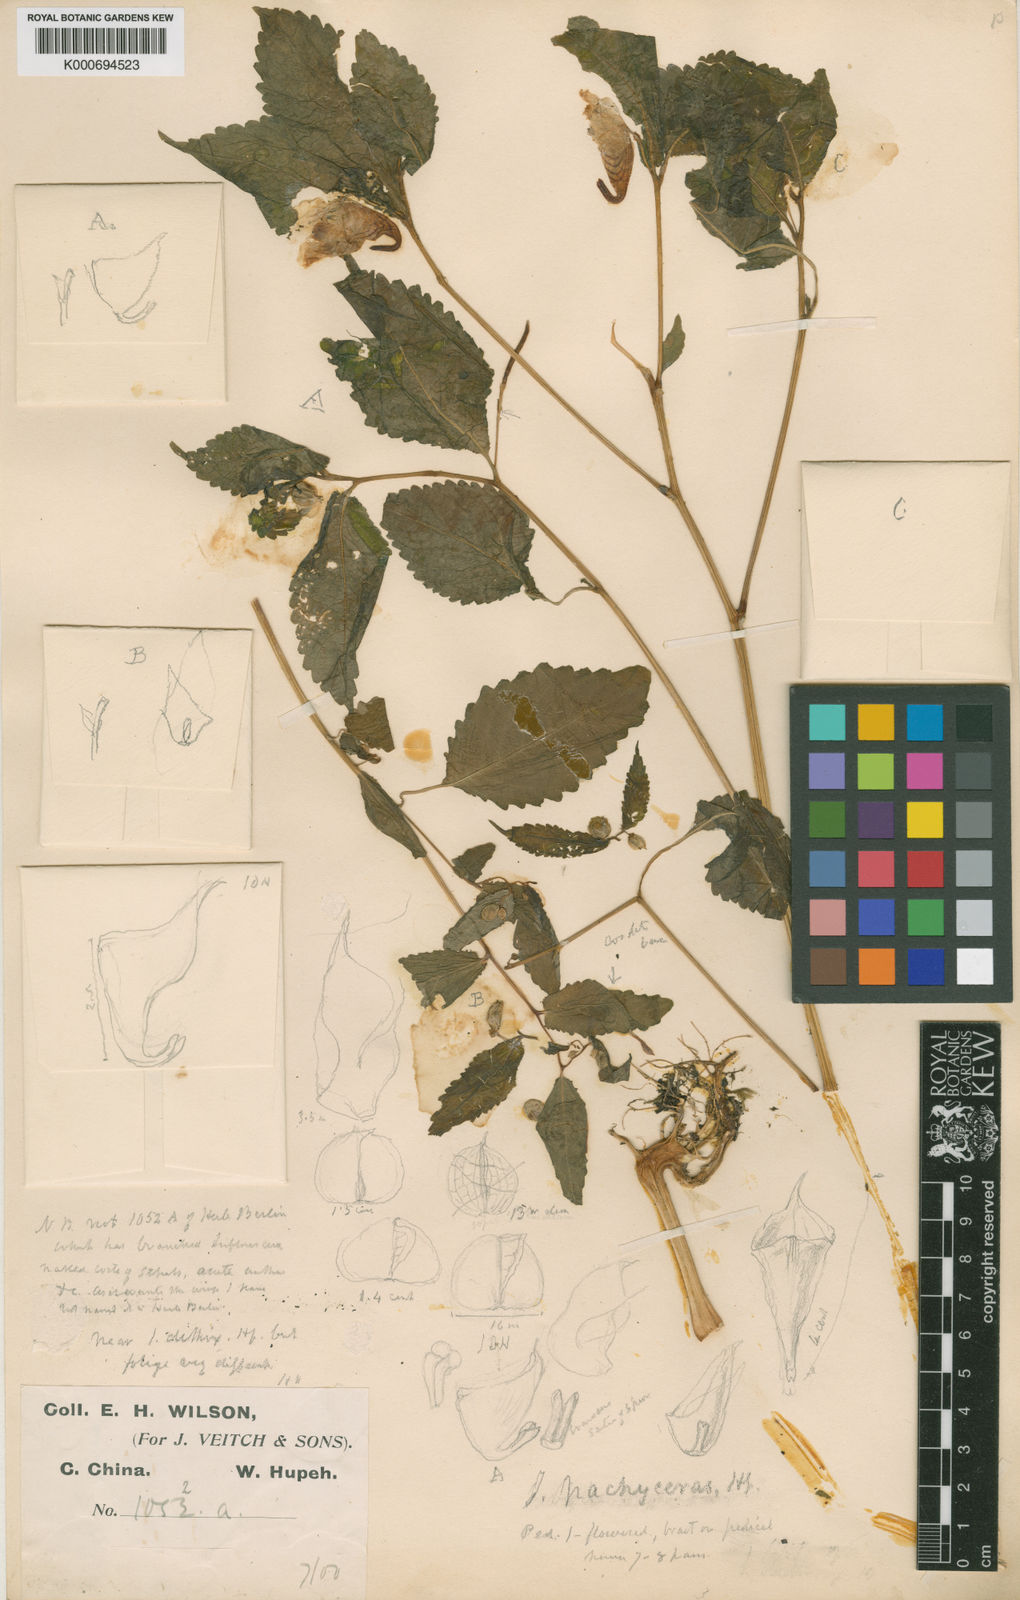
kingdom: Plantae
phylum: Tracheophyta
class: Magnoliopsida
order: Ericales
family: Balsaminaceae
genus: Impatiens
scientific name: Impatiens
